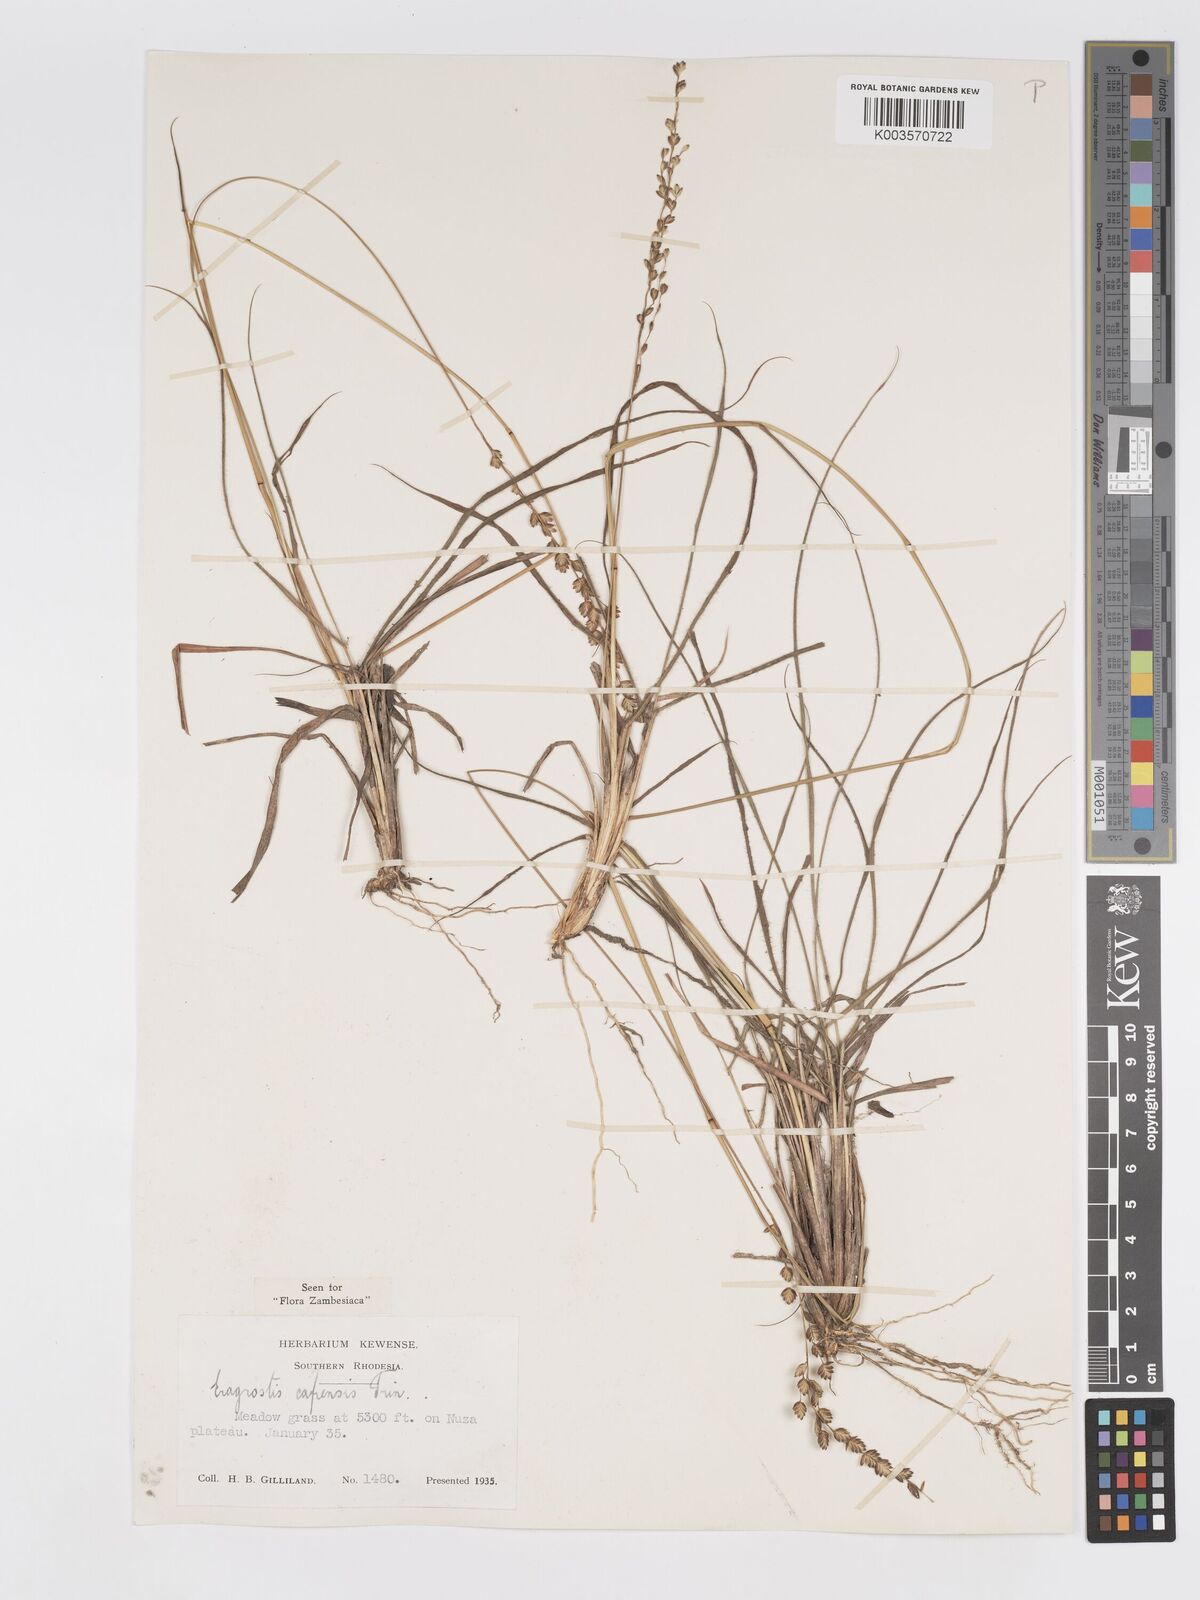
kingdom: Plantae
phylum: Tracheophyta
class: Liliopsida
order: Poales
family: Poaceae
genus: Eragrostis
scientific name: Eragrostis capensis
